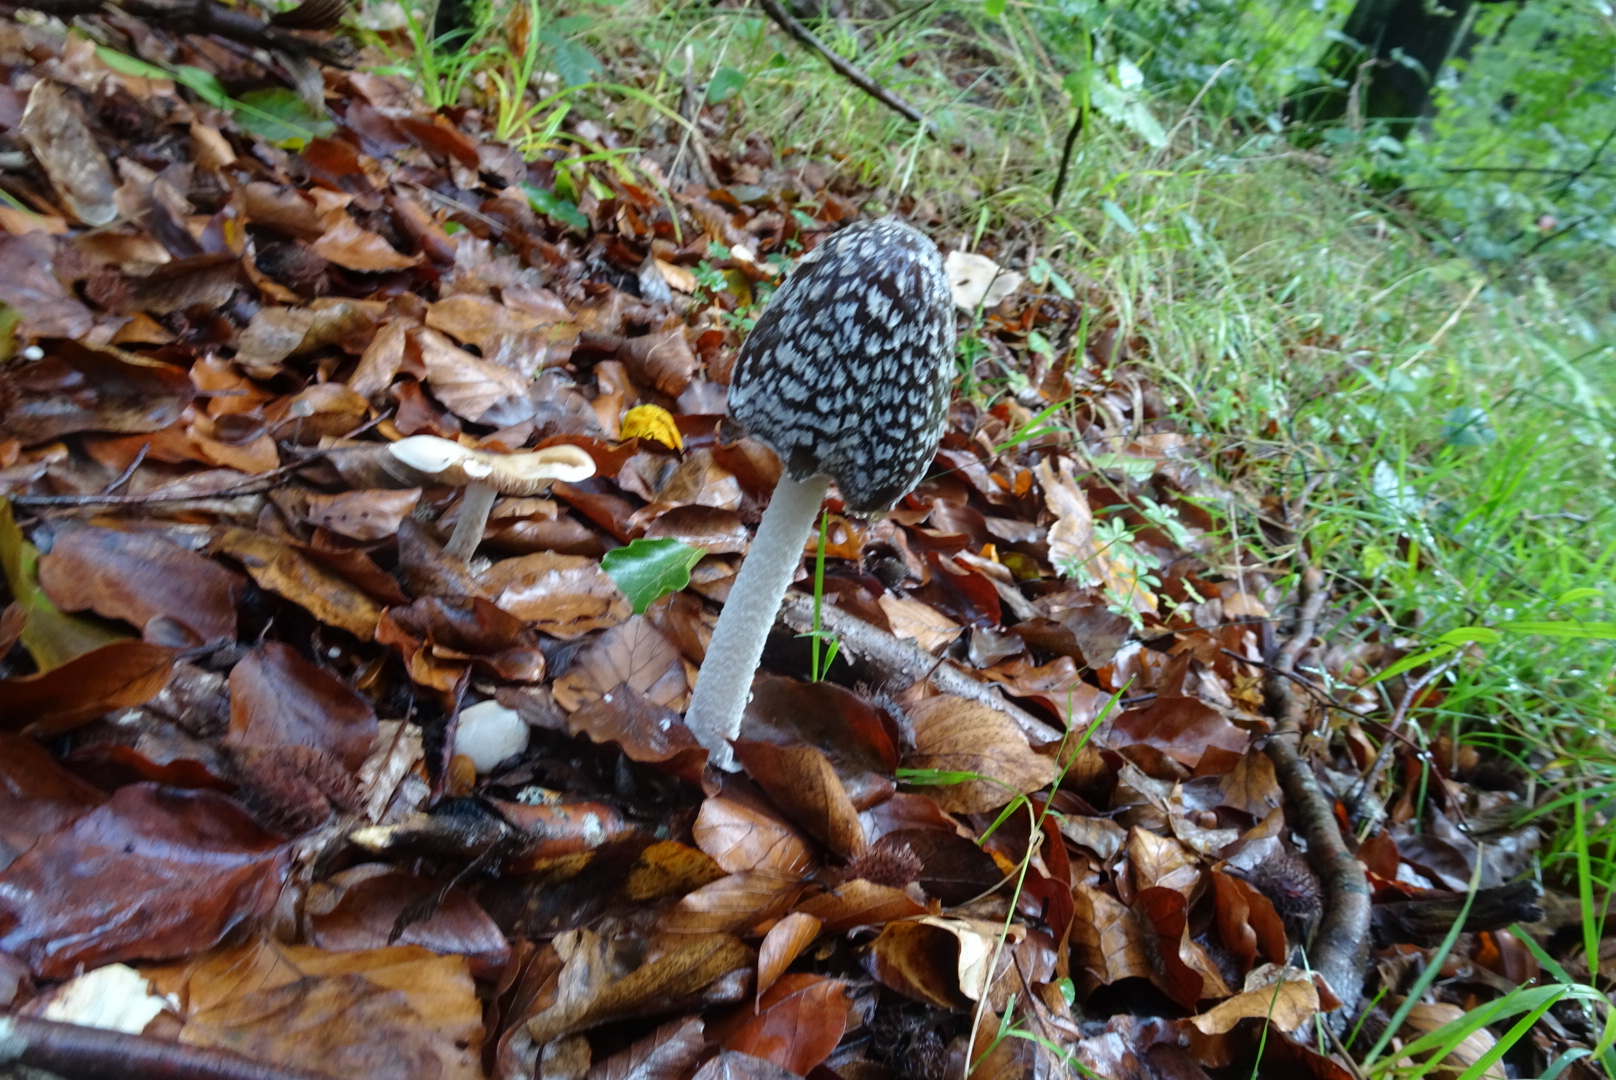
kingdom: Fungi
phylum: Basidiomycota
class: Agaricomycetes
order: Agaricales
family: Psathyrellaceae
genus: Coprinopsis
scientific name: Coprinopsis picacea
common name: skade-blækhat
